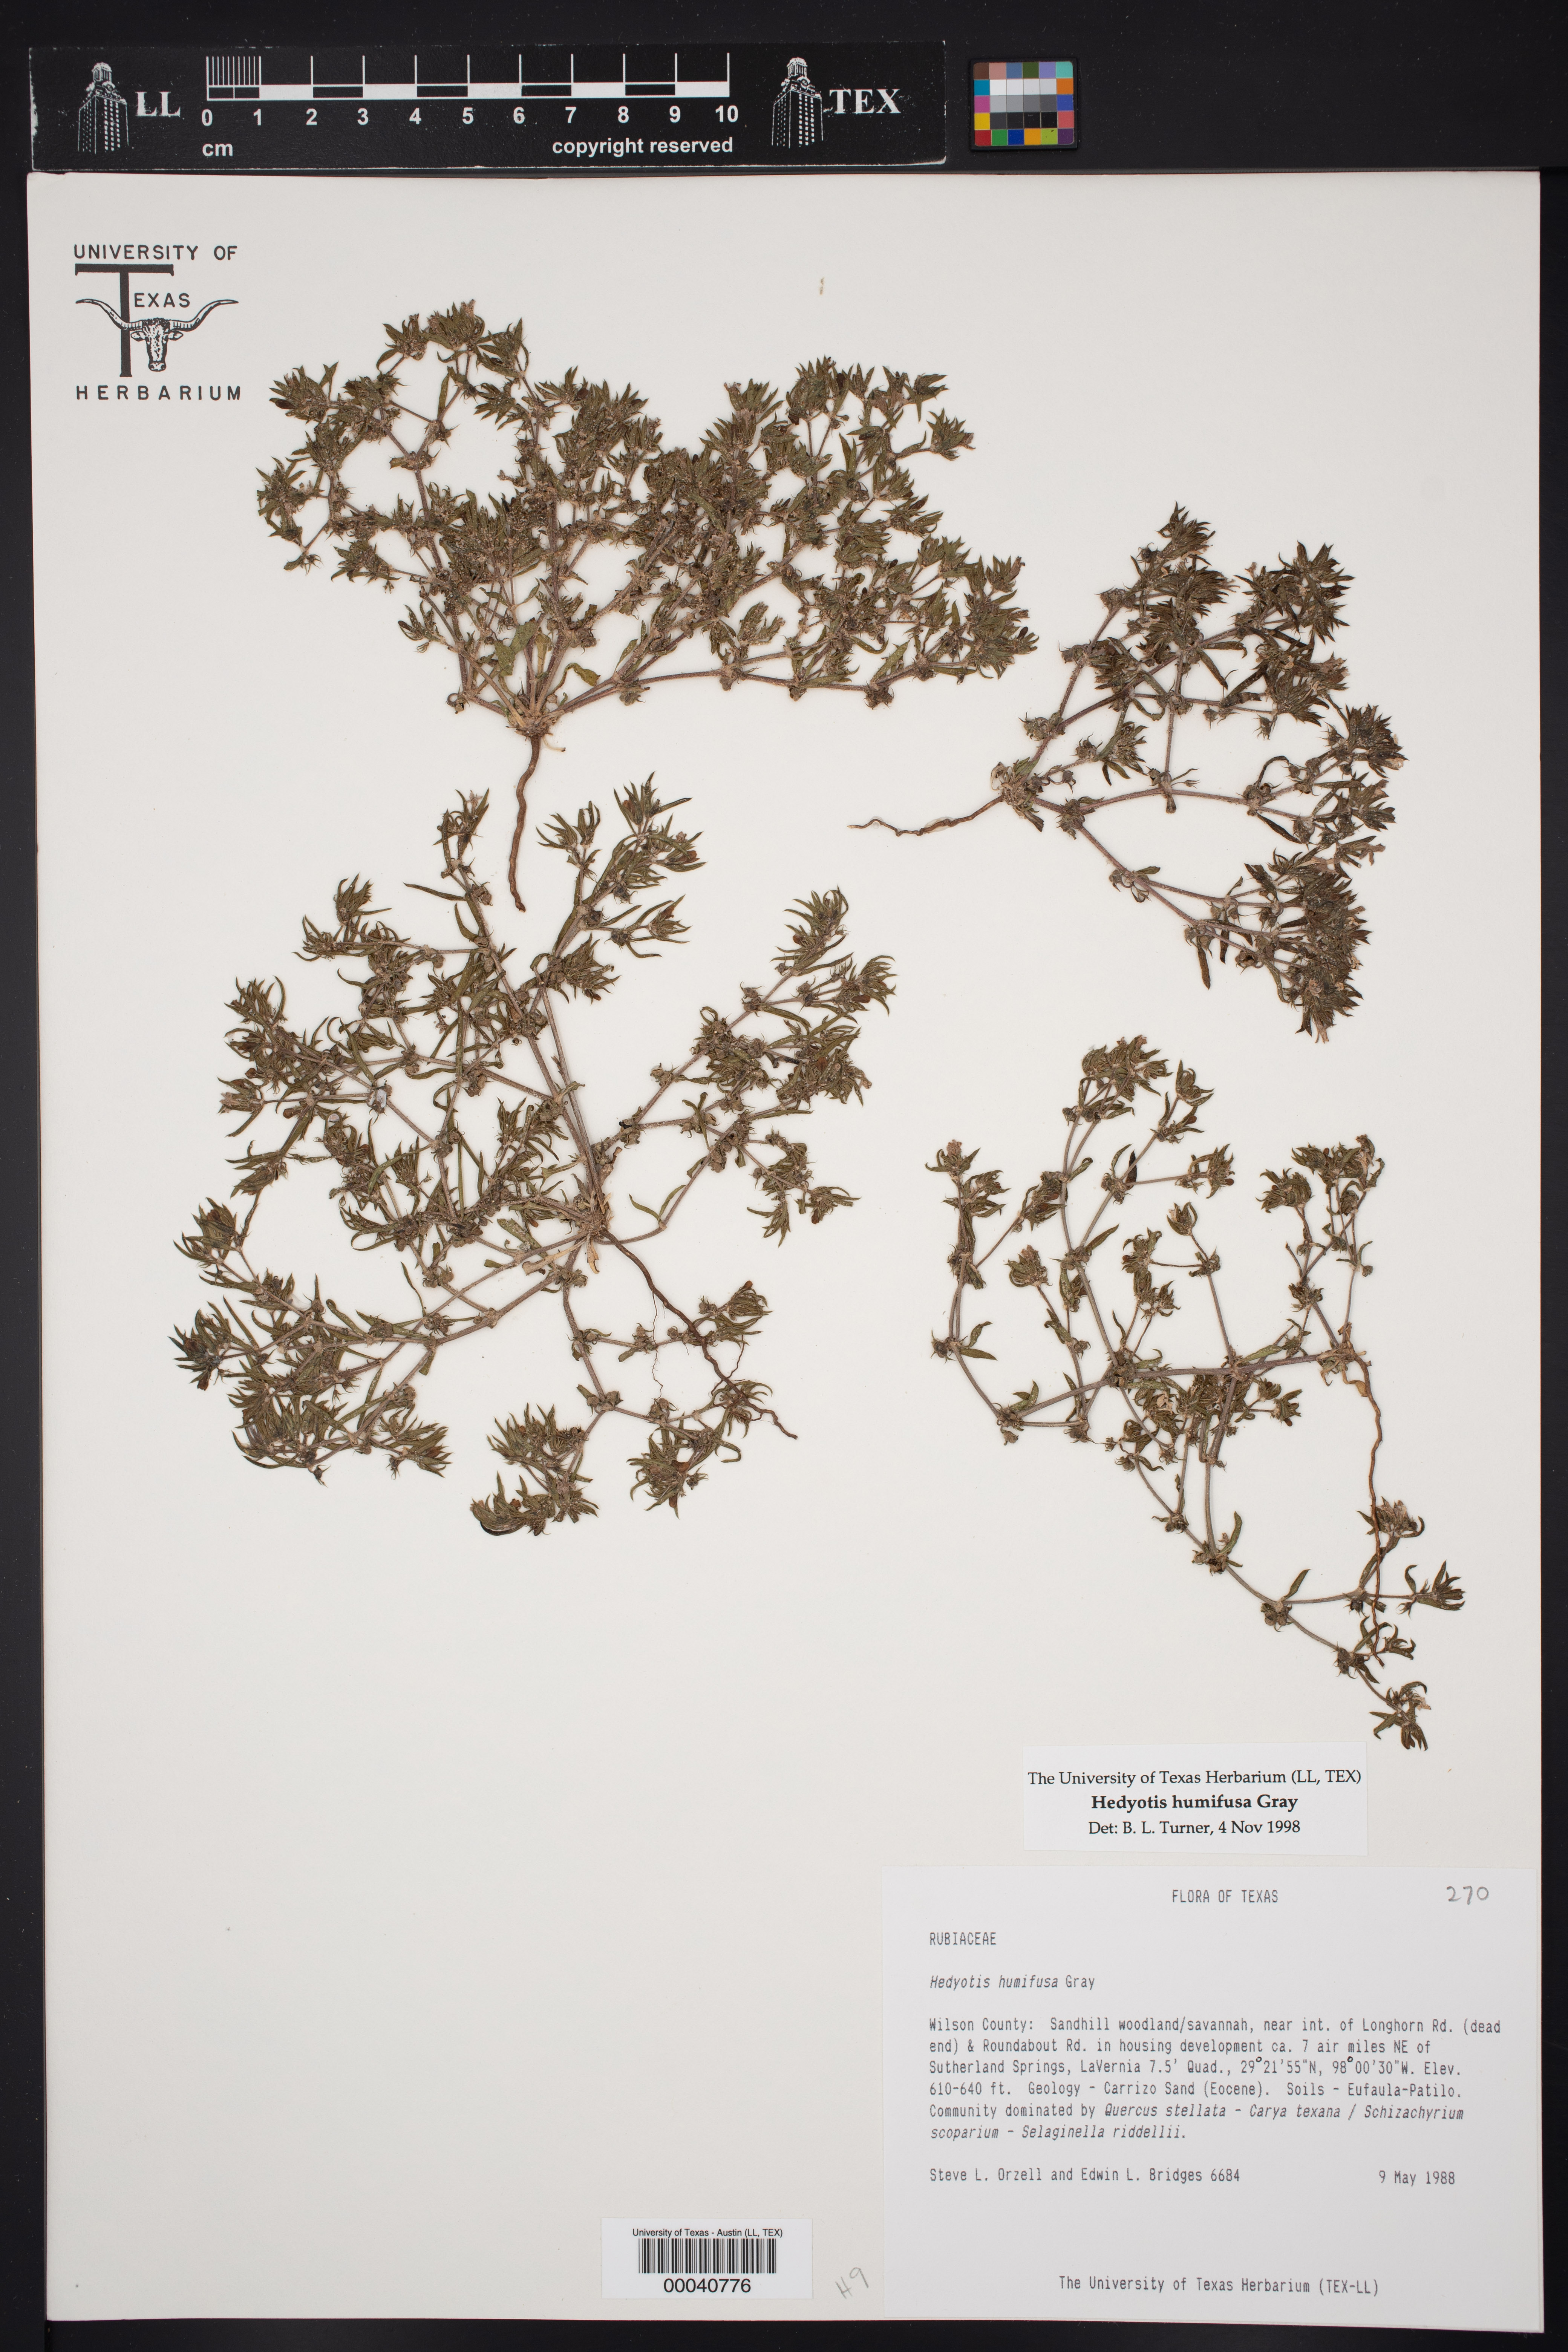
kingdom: Plantae
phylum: Tracheophyta
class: Magnoliopsida
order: Gentianales
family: Rubiaceae
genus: Houstonia
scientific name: Houstonia humifusa
